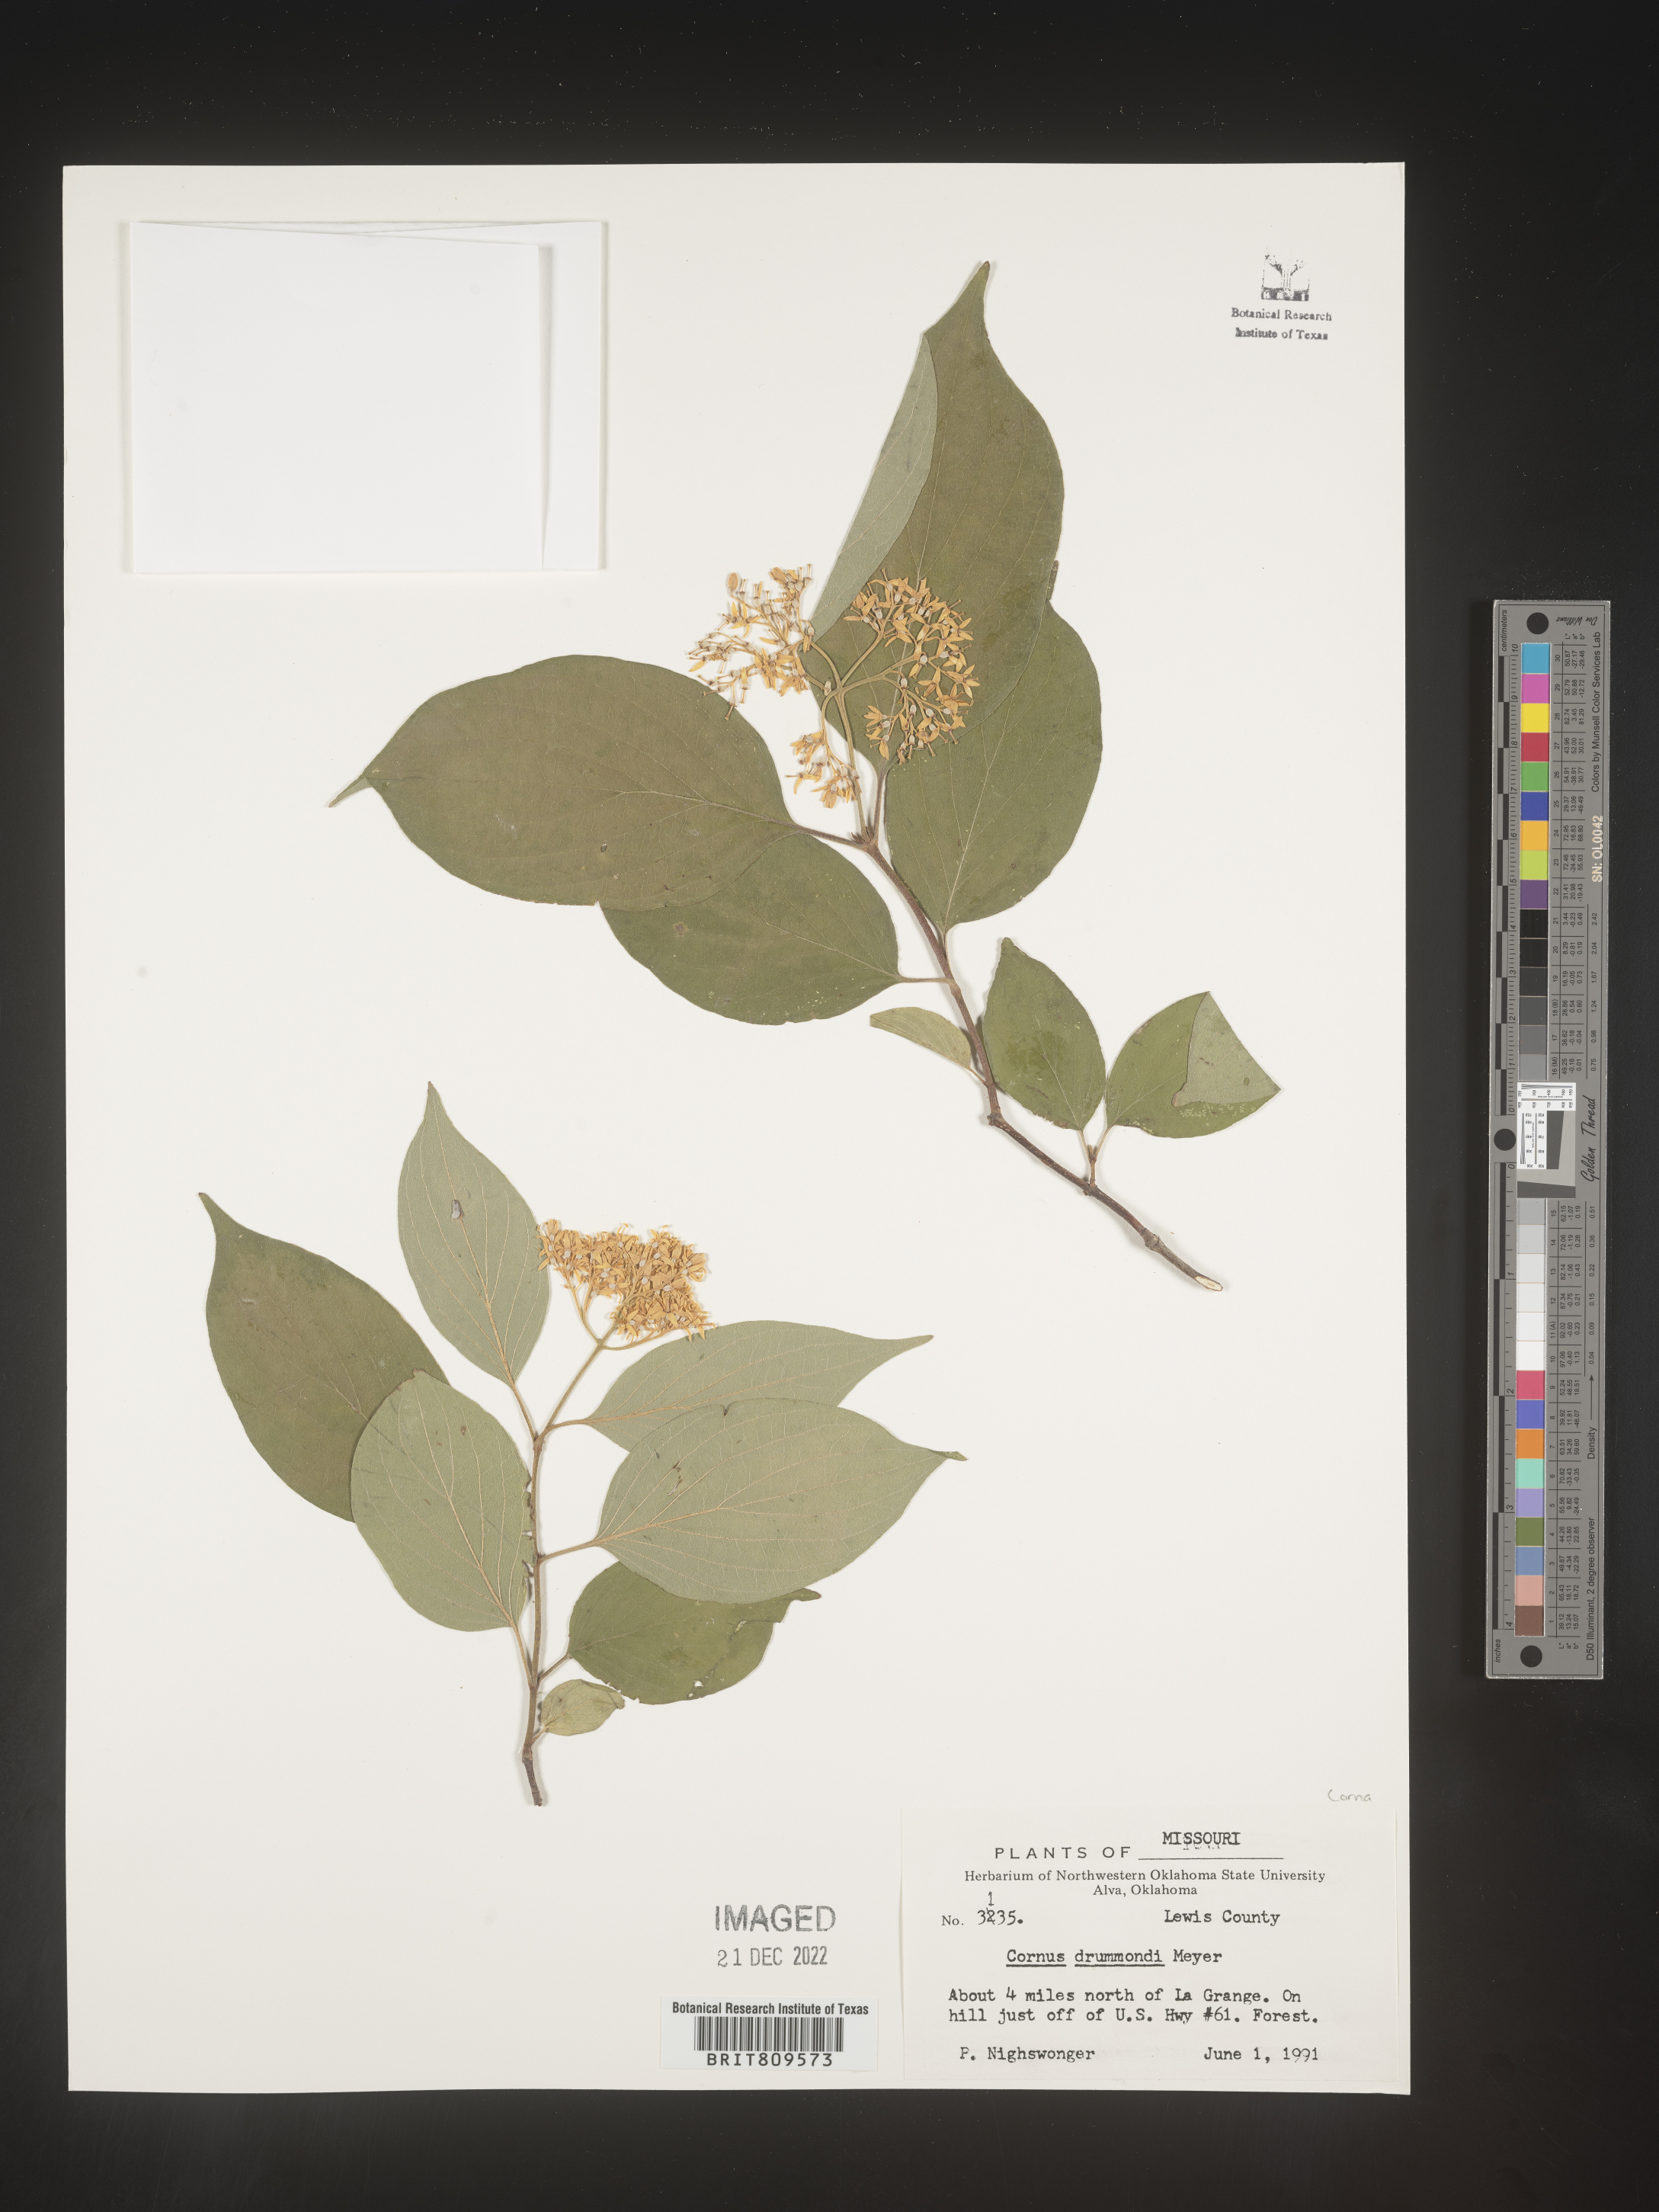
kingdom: Plantae
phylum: Tracheophyta
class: Magnoliopsida
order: Cornales
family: Cornaceae
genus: Cornus
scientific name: Cornus drummondii
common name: Rough-leaf dogwood
